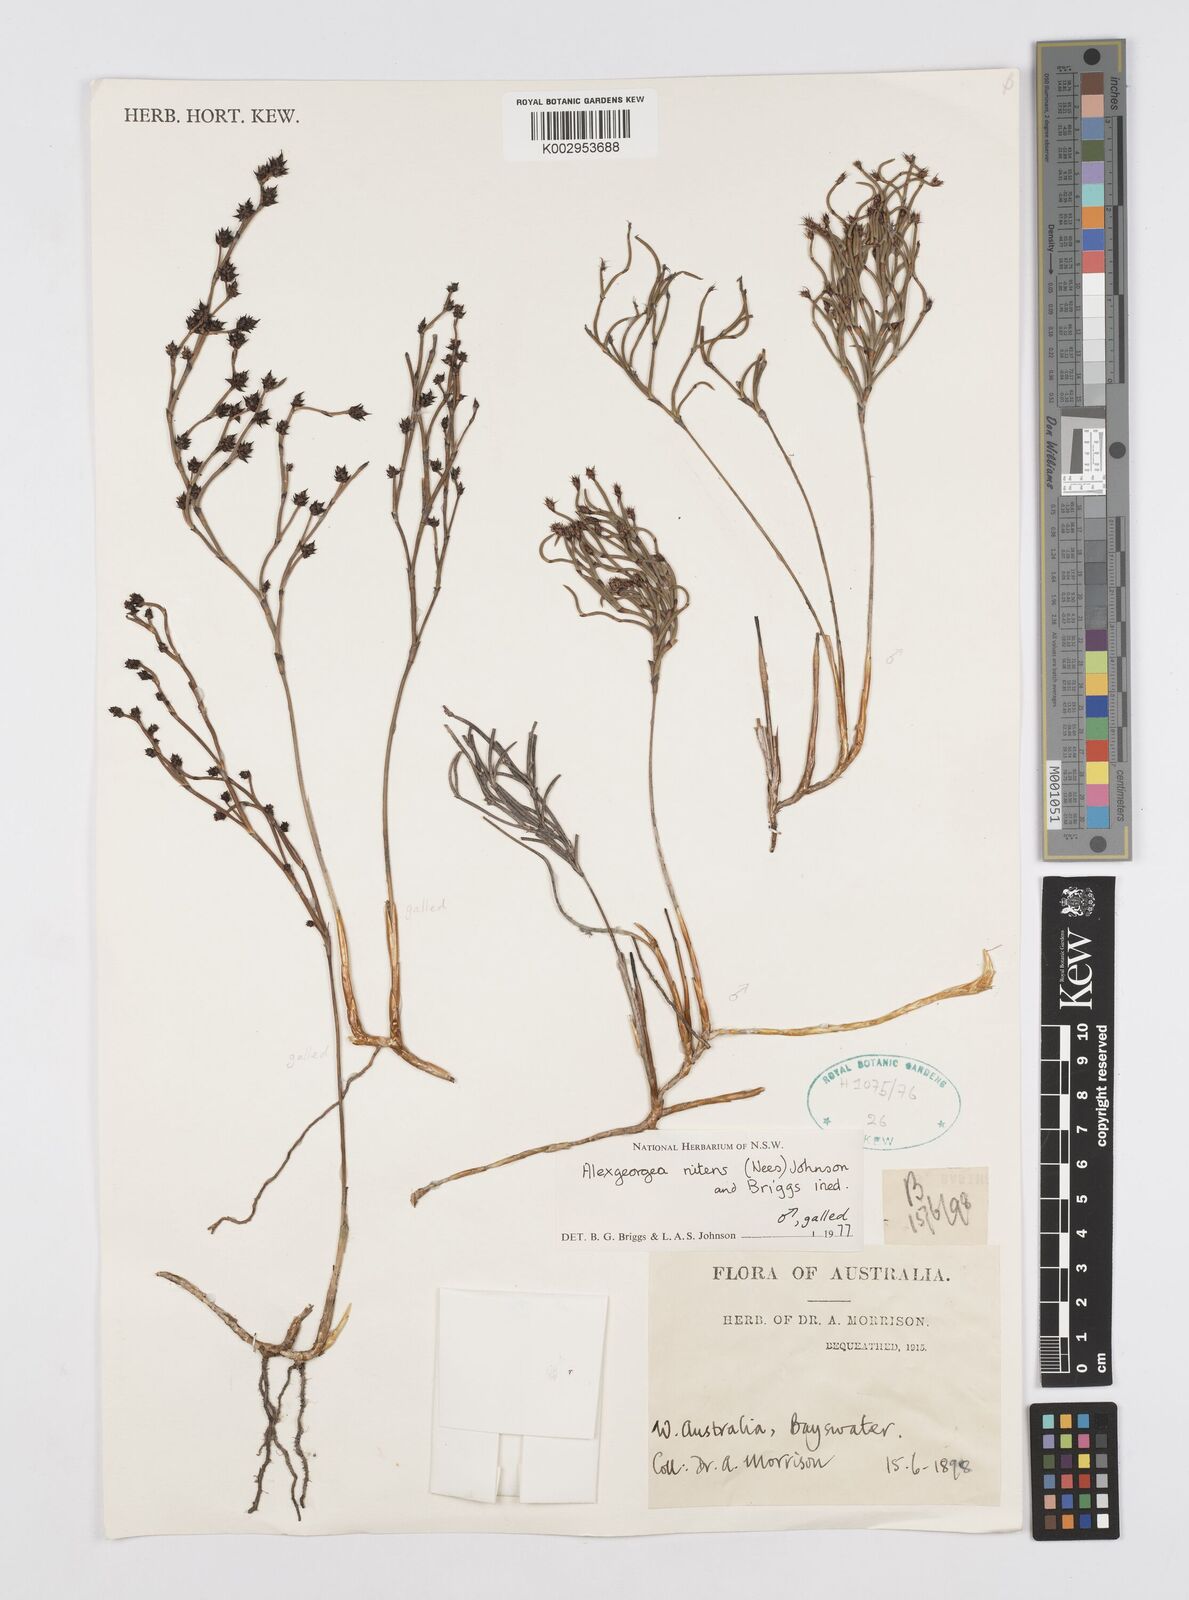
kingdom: Plantae
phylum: Tracheophyta
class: Liliopsida
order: Poales
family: Restionaceae
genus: Alexgeorgea
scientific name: Alexgeorgea nitens
